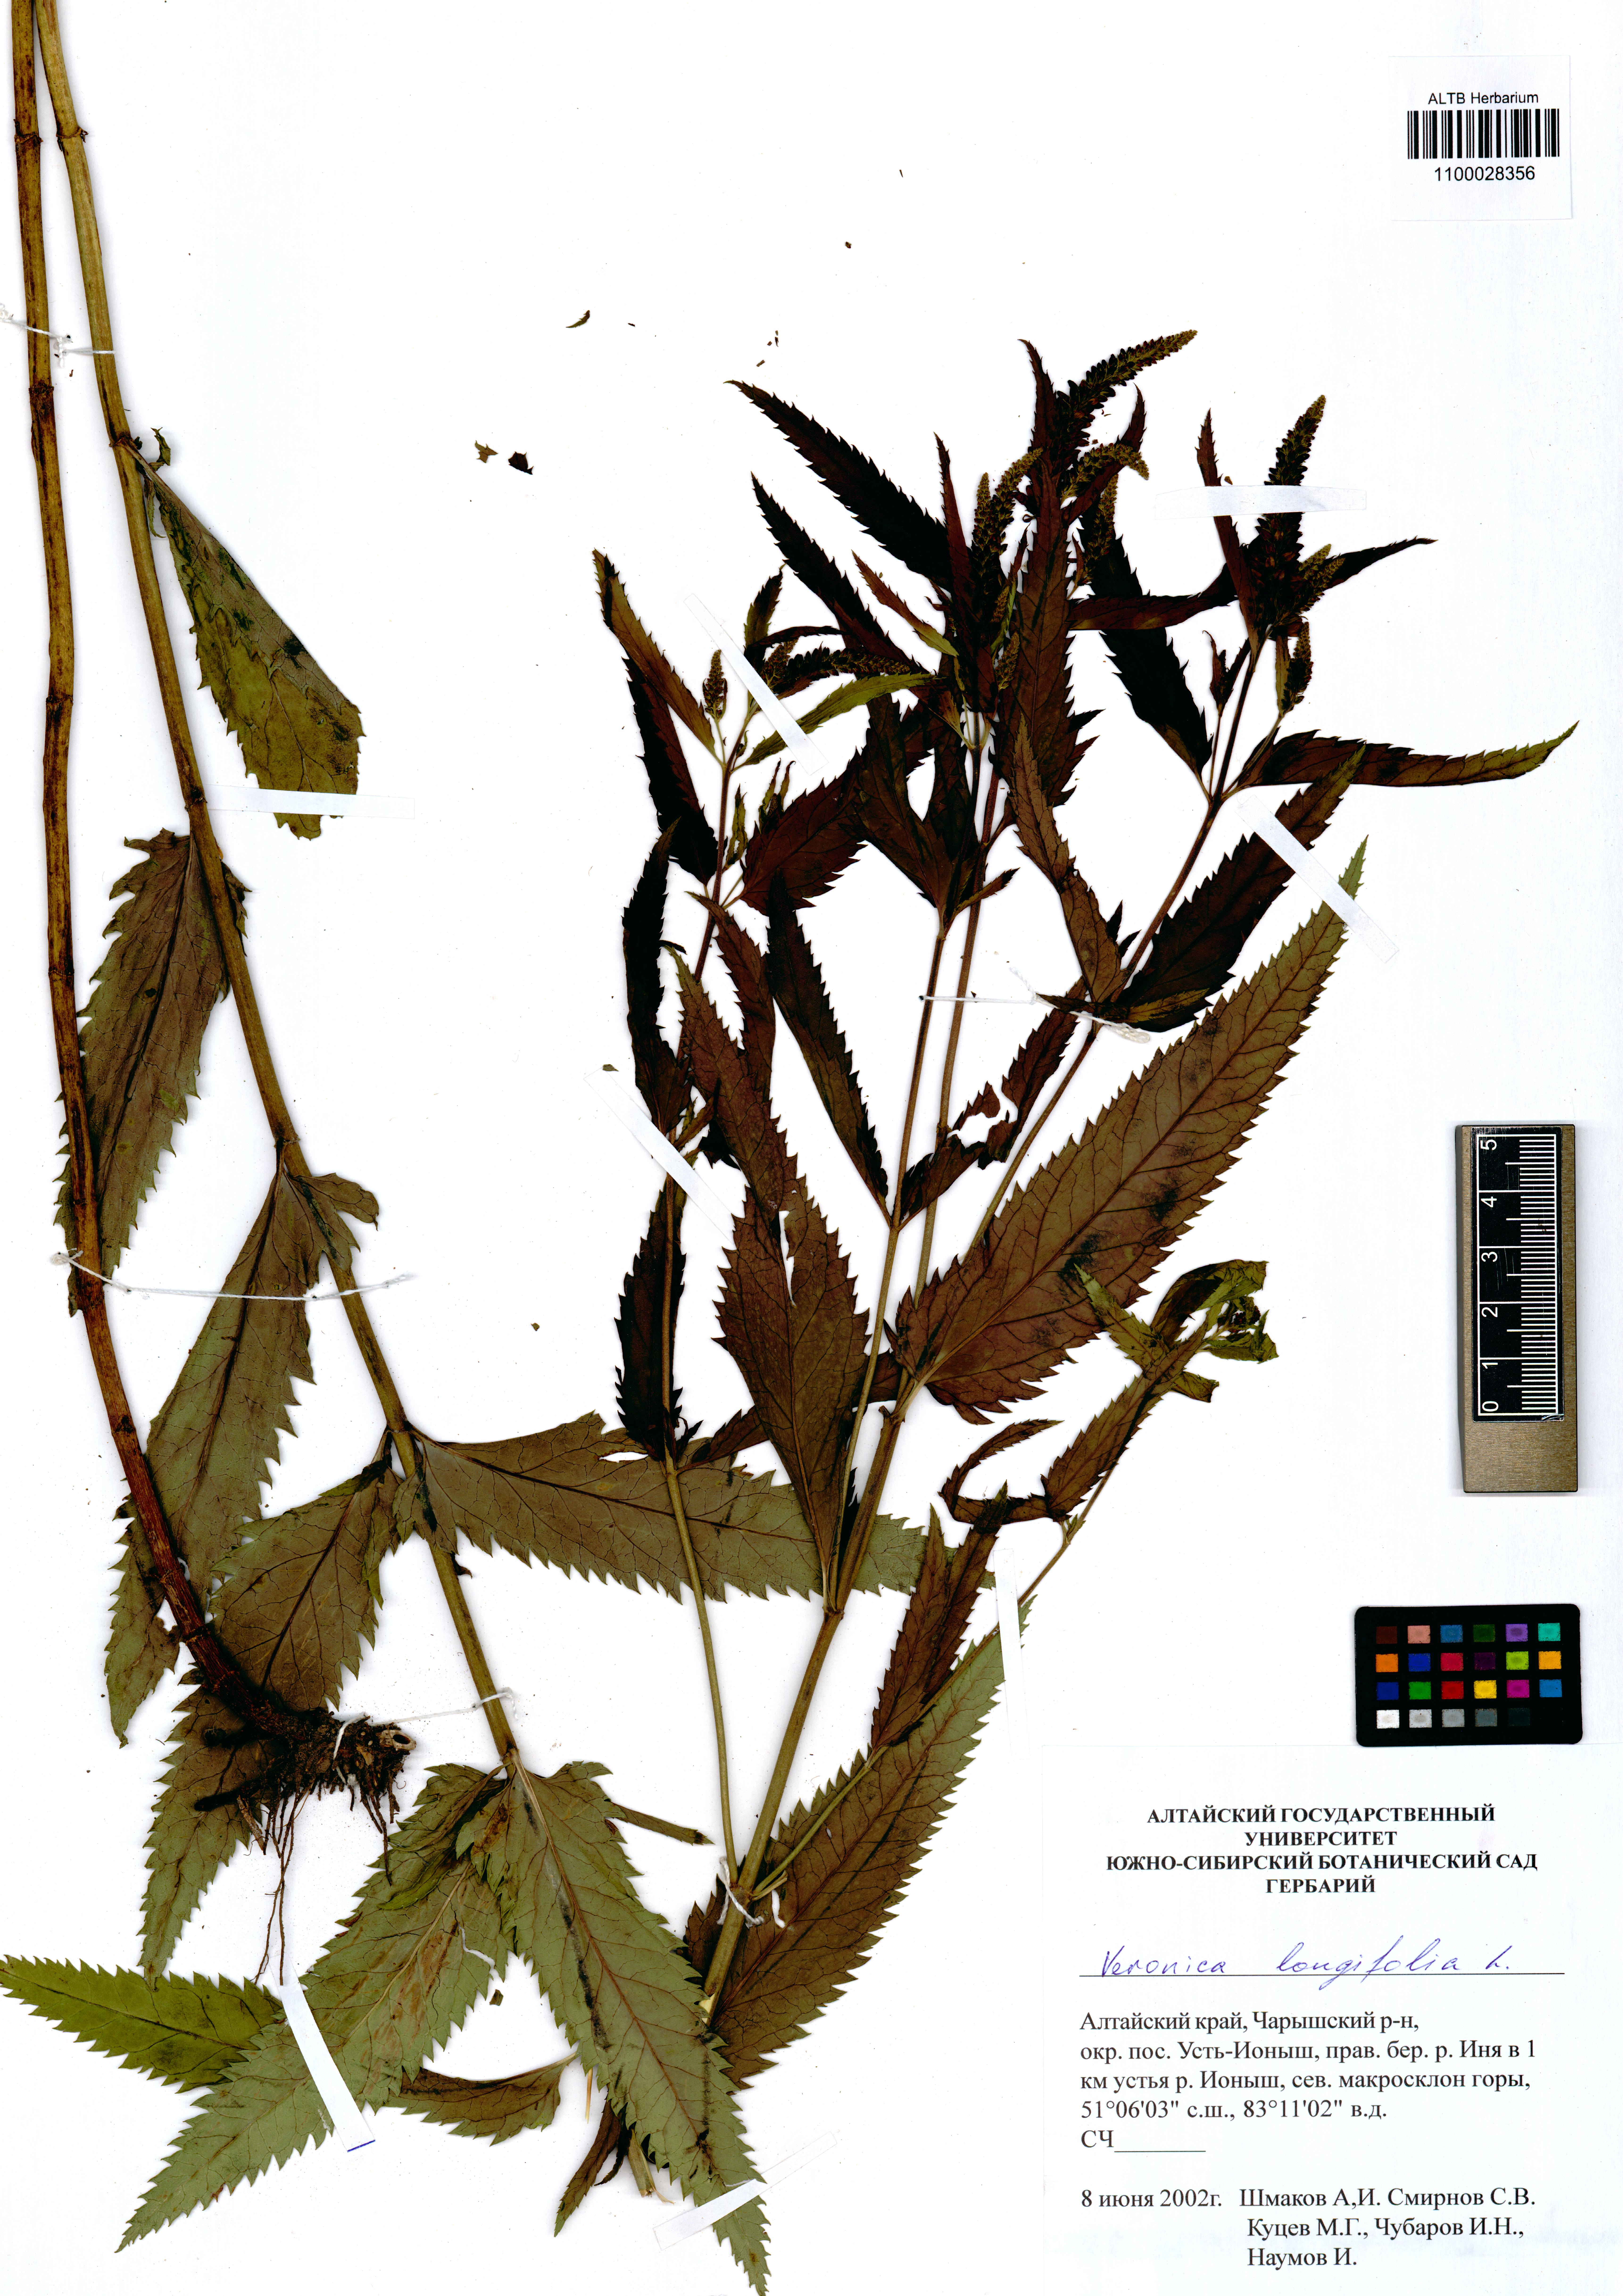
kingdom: Plantae
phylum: Tracheophyta
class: Magnoliopsida
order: Lamiales
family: Plantaginaceae
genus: Veronica
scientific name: Veronica longifolia
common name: Garden speedwell
